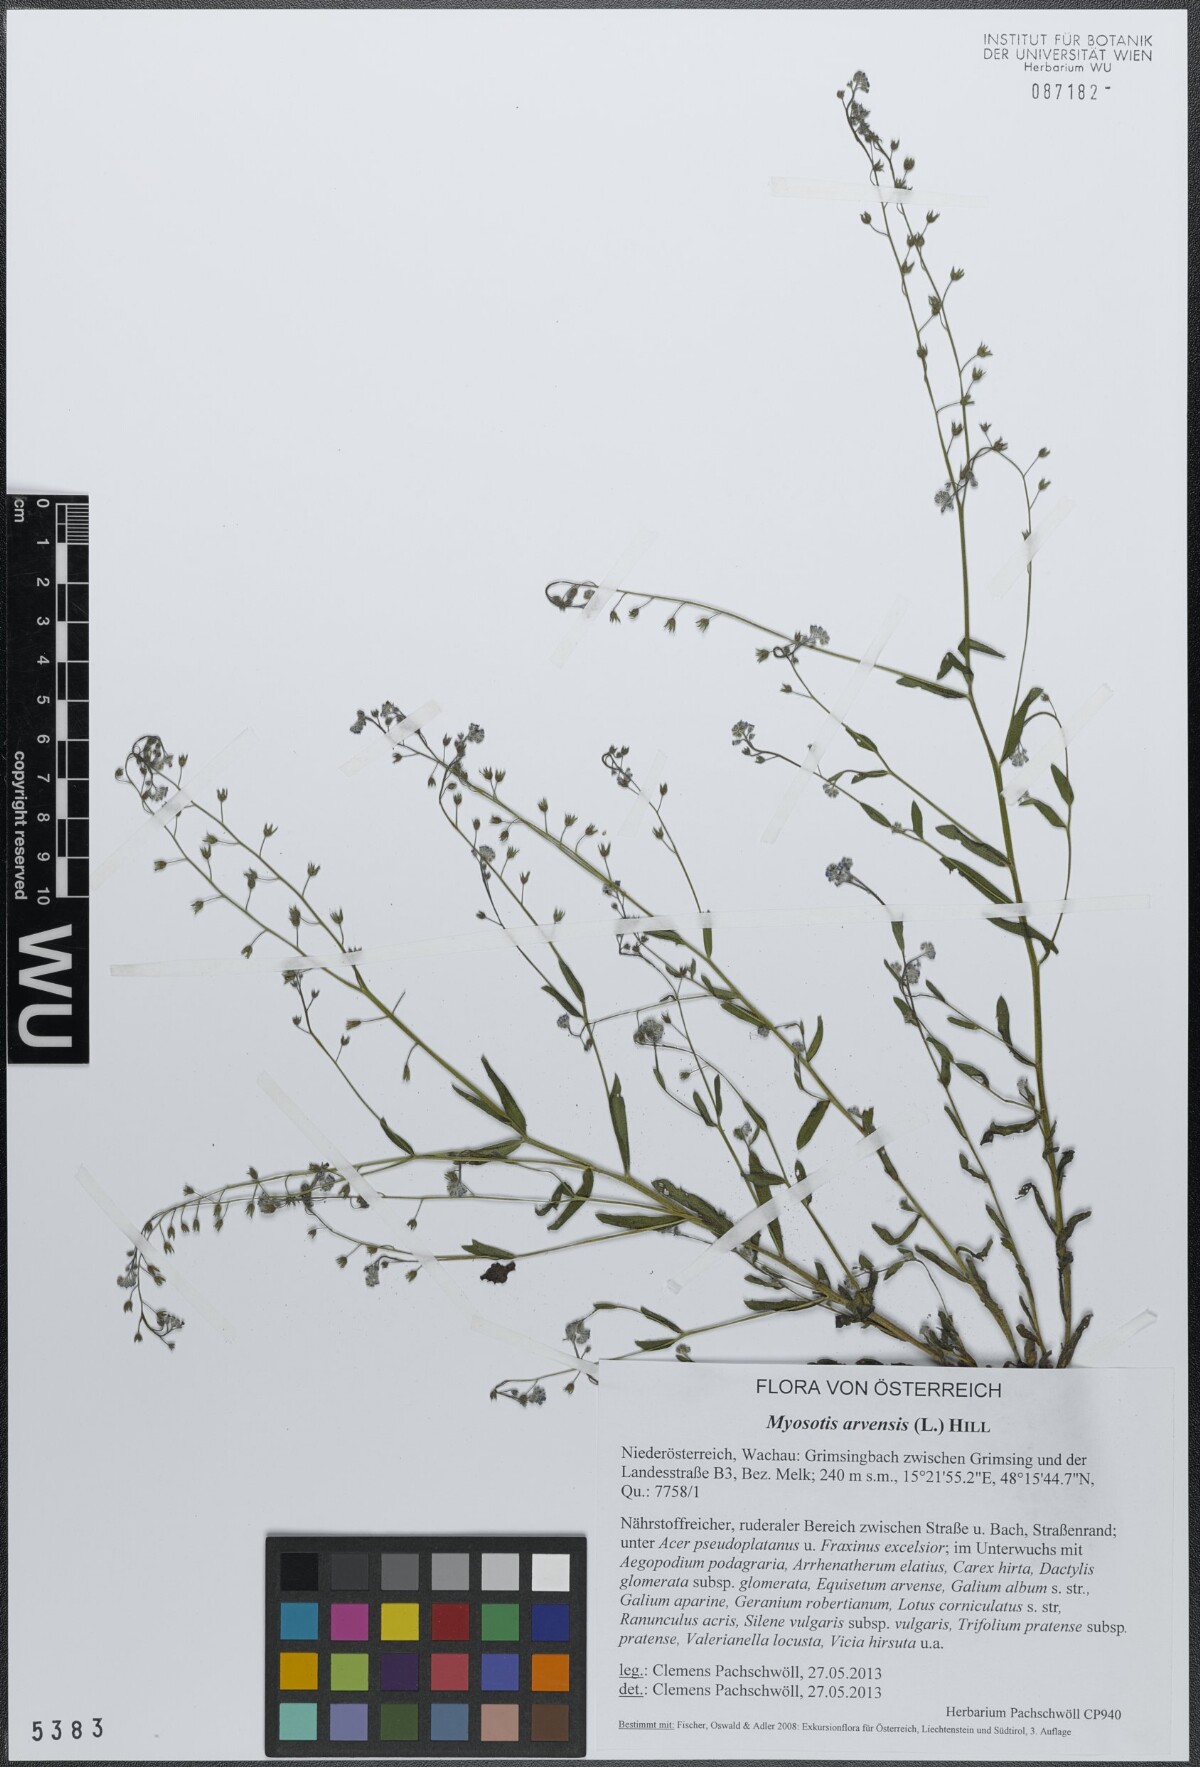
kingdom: Plantae
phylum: Tracheophyta
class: Magnoliopsida
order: Boraginales
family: Boraginaceae
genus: Myosotis
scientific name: Myosotis arvensis
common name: Field forget-me-not
